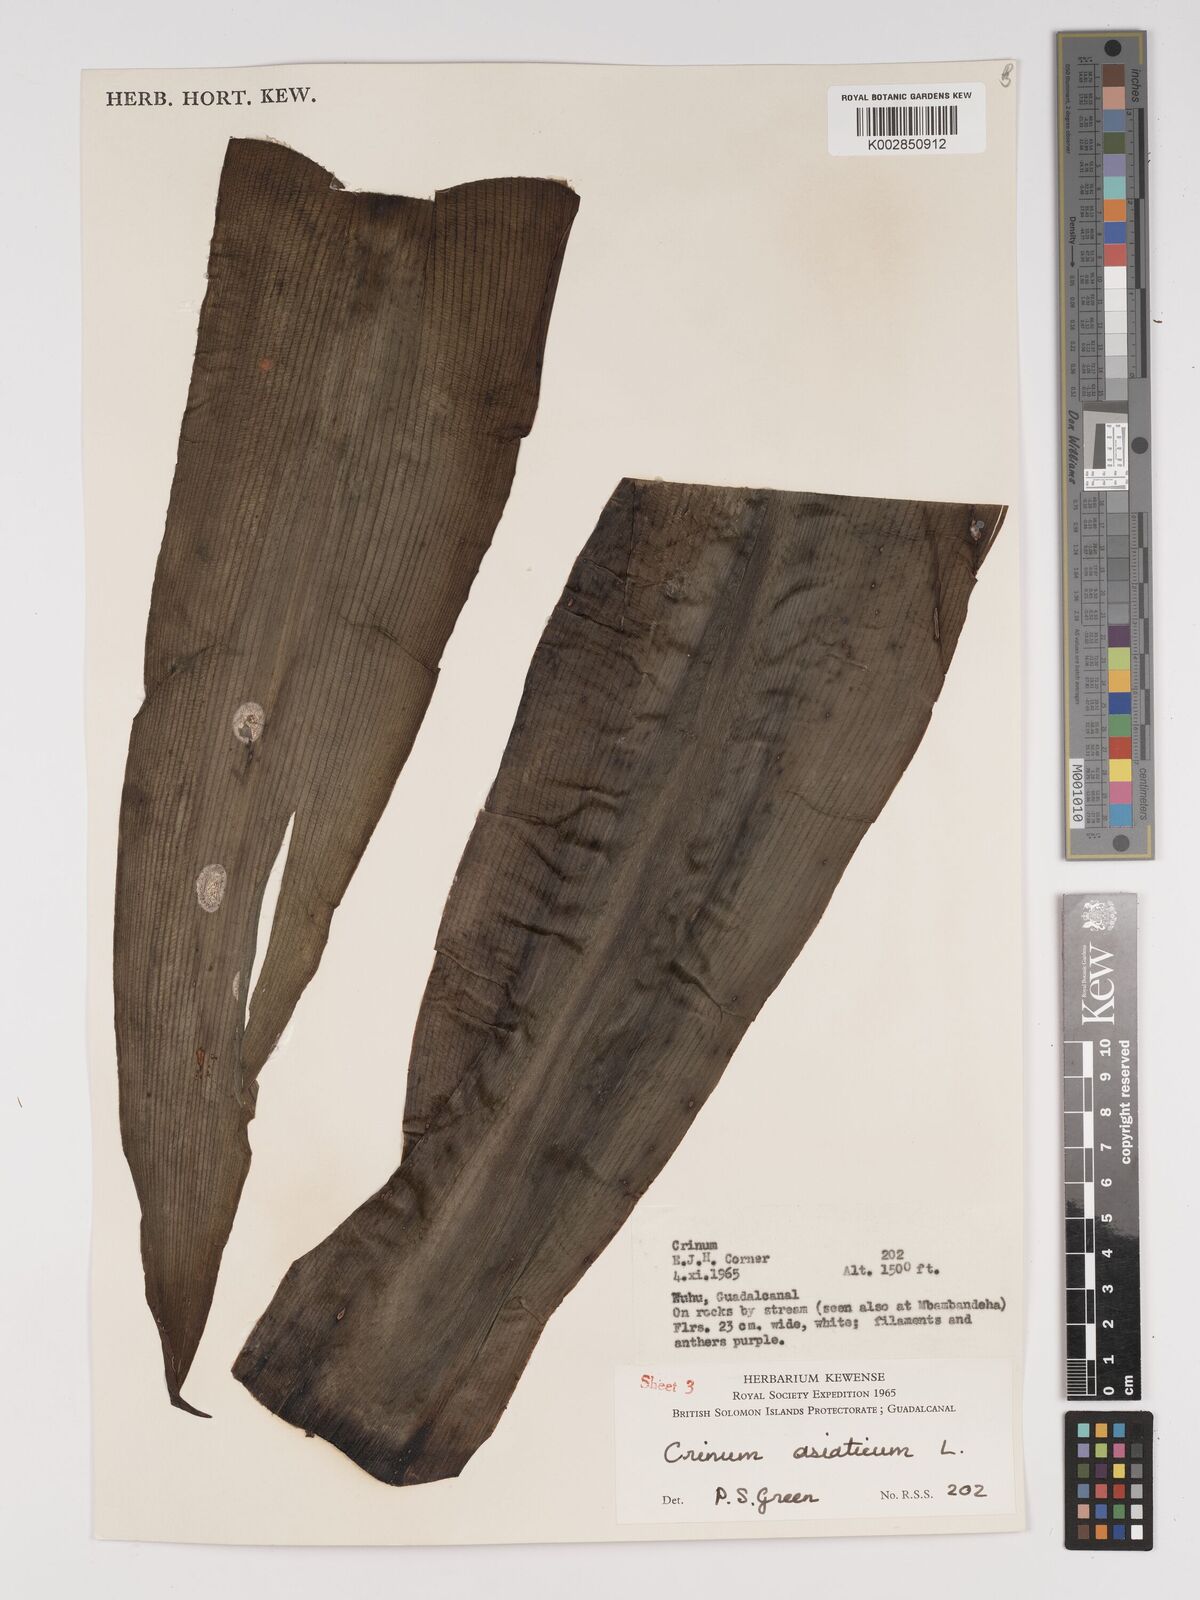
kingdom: Plantae
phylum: Tracheophyta
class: Liliopsida
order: Asparagales
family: Amaryllidaceae
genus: Crinum
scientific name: Crinum asiaticum
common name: Poisonbulb
